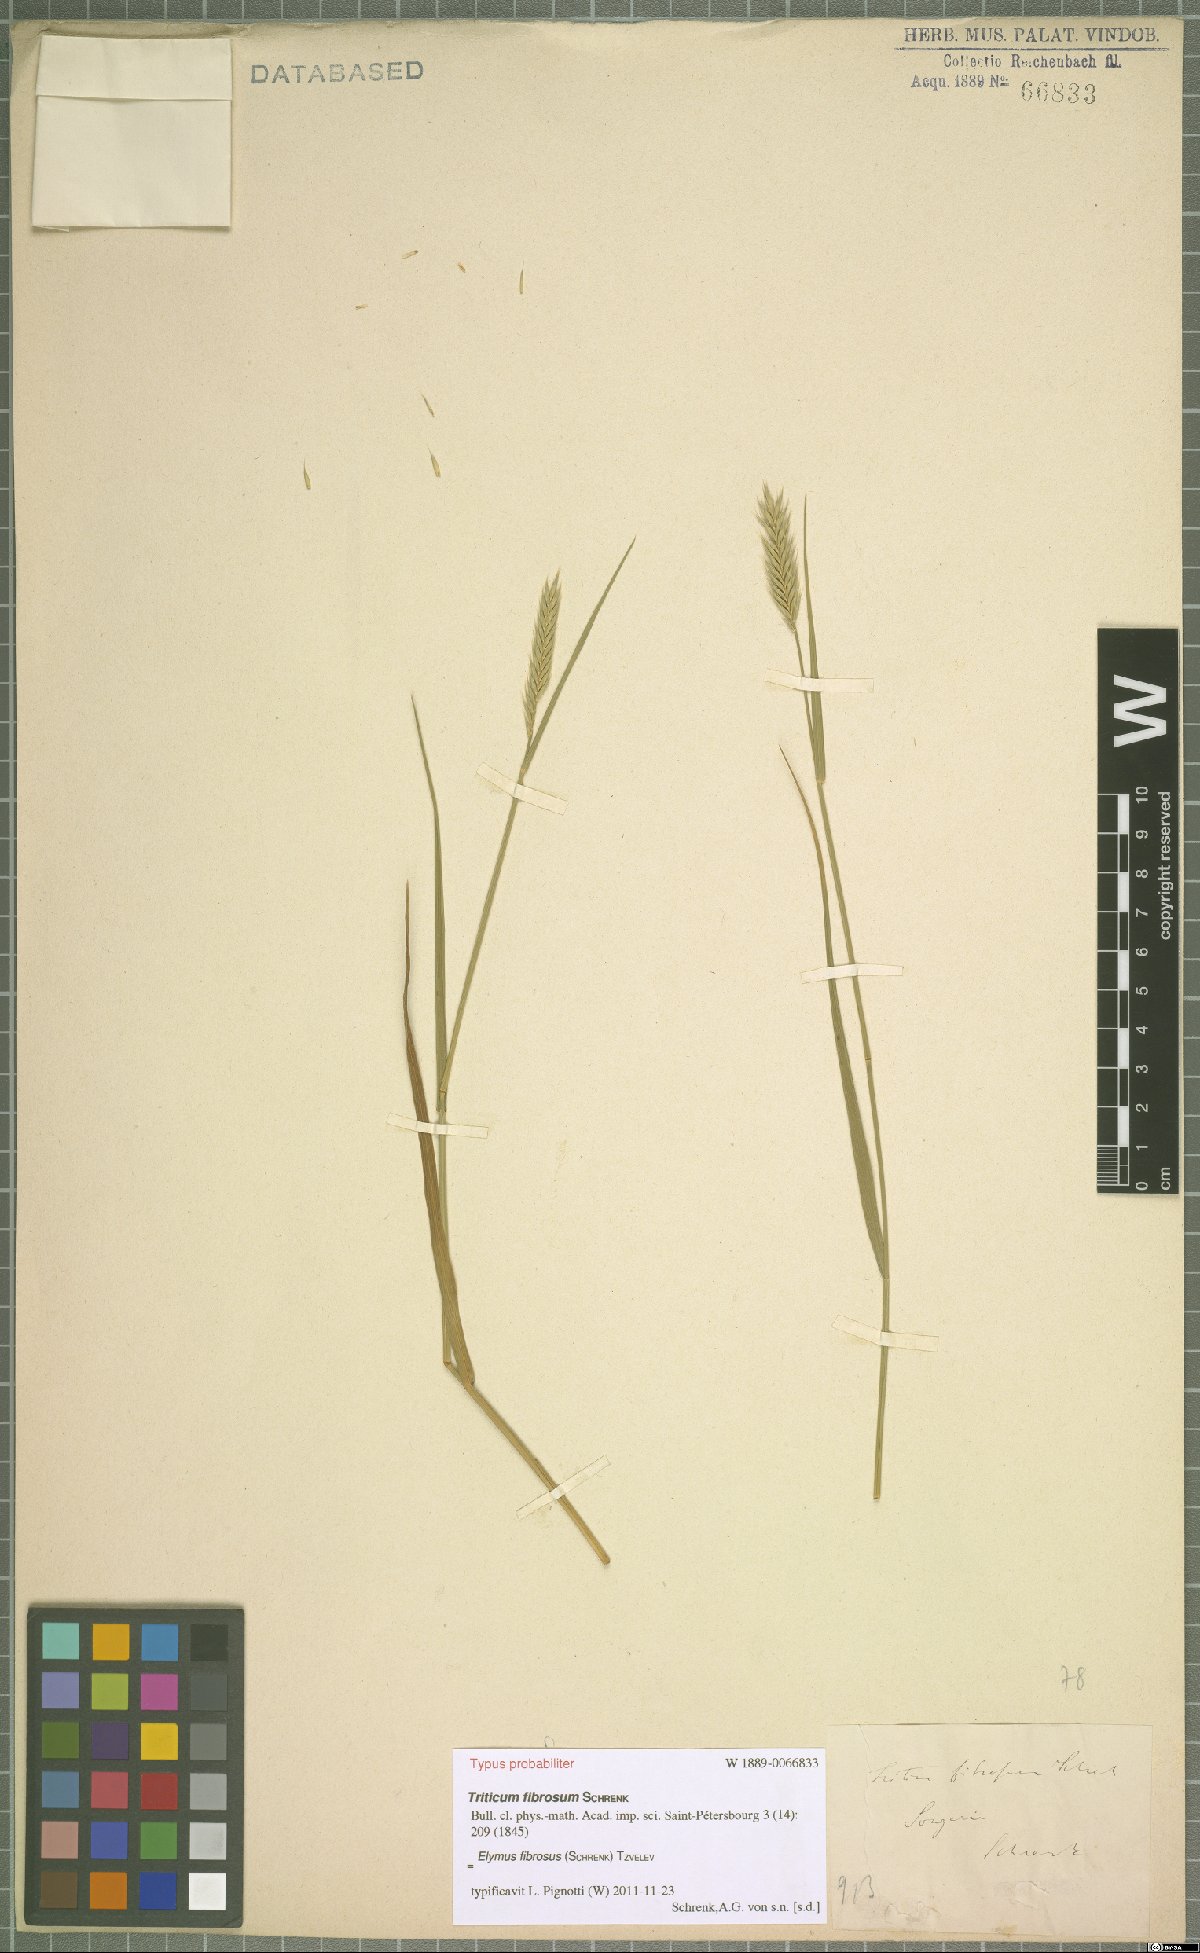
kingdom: Plantae
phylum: Tracheophyta
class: Liliopsida
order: Poales
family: Poaceae
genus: Elymus
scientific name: Elymus fibrosus
